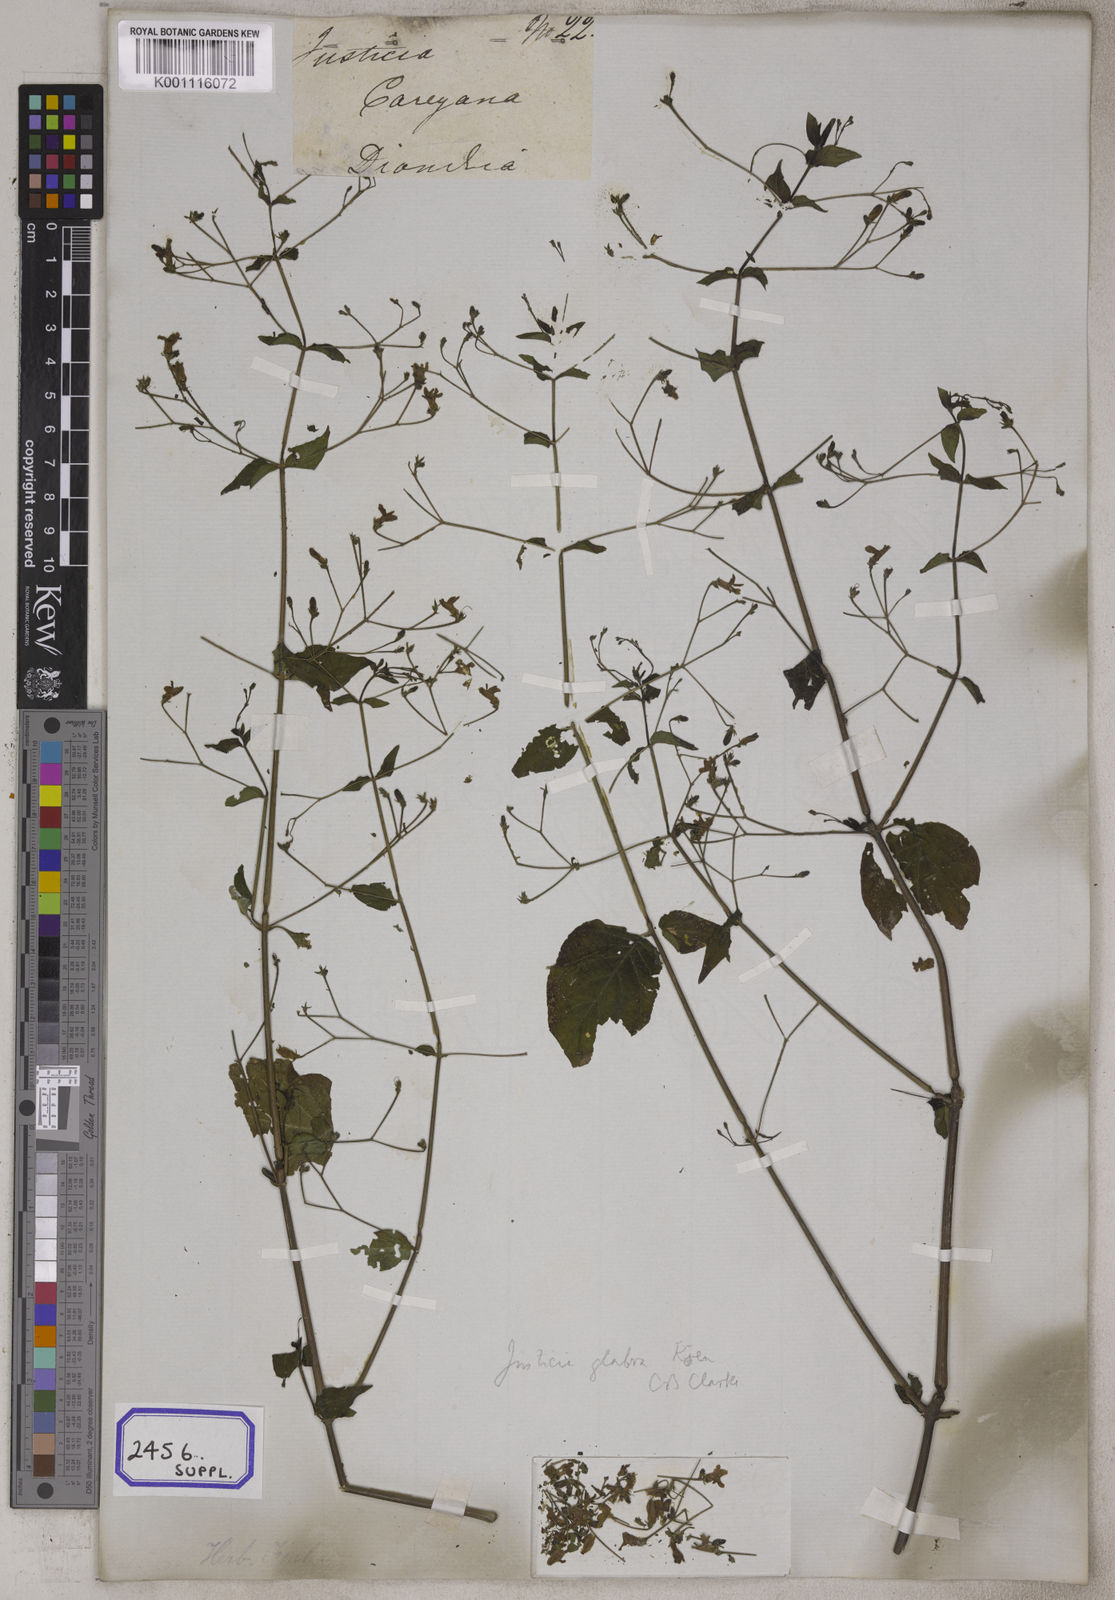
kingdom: Plantae
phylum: Tracheophyta
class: Magnoliopsida
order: Lamiales
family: Acanthaceae
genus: Justicia
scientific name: Justicia careyana
